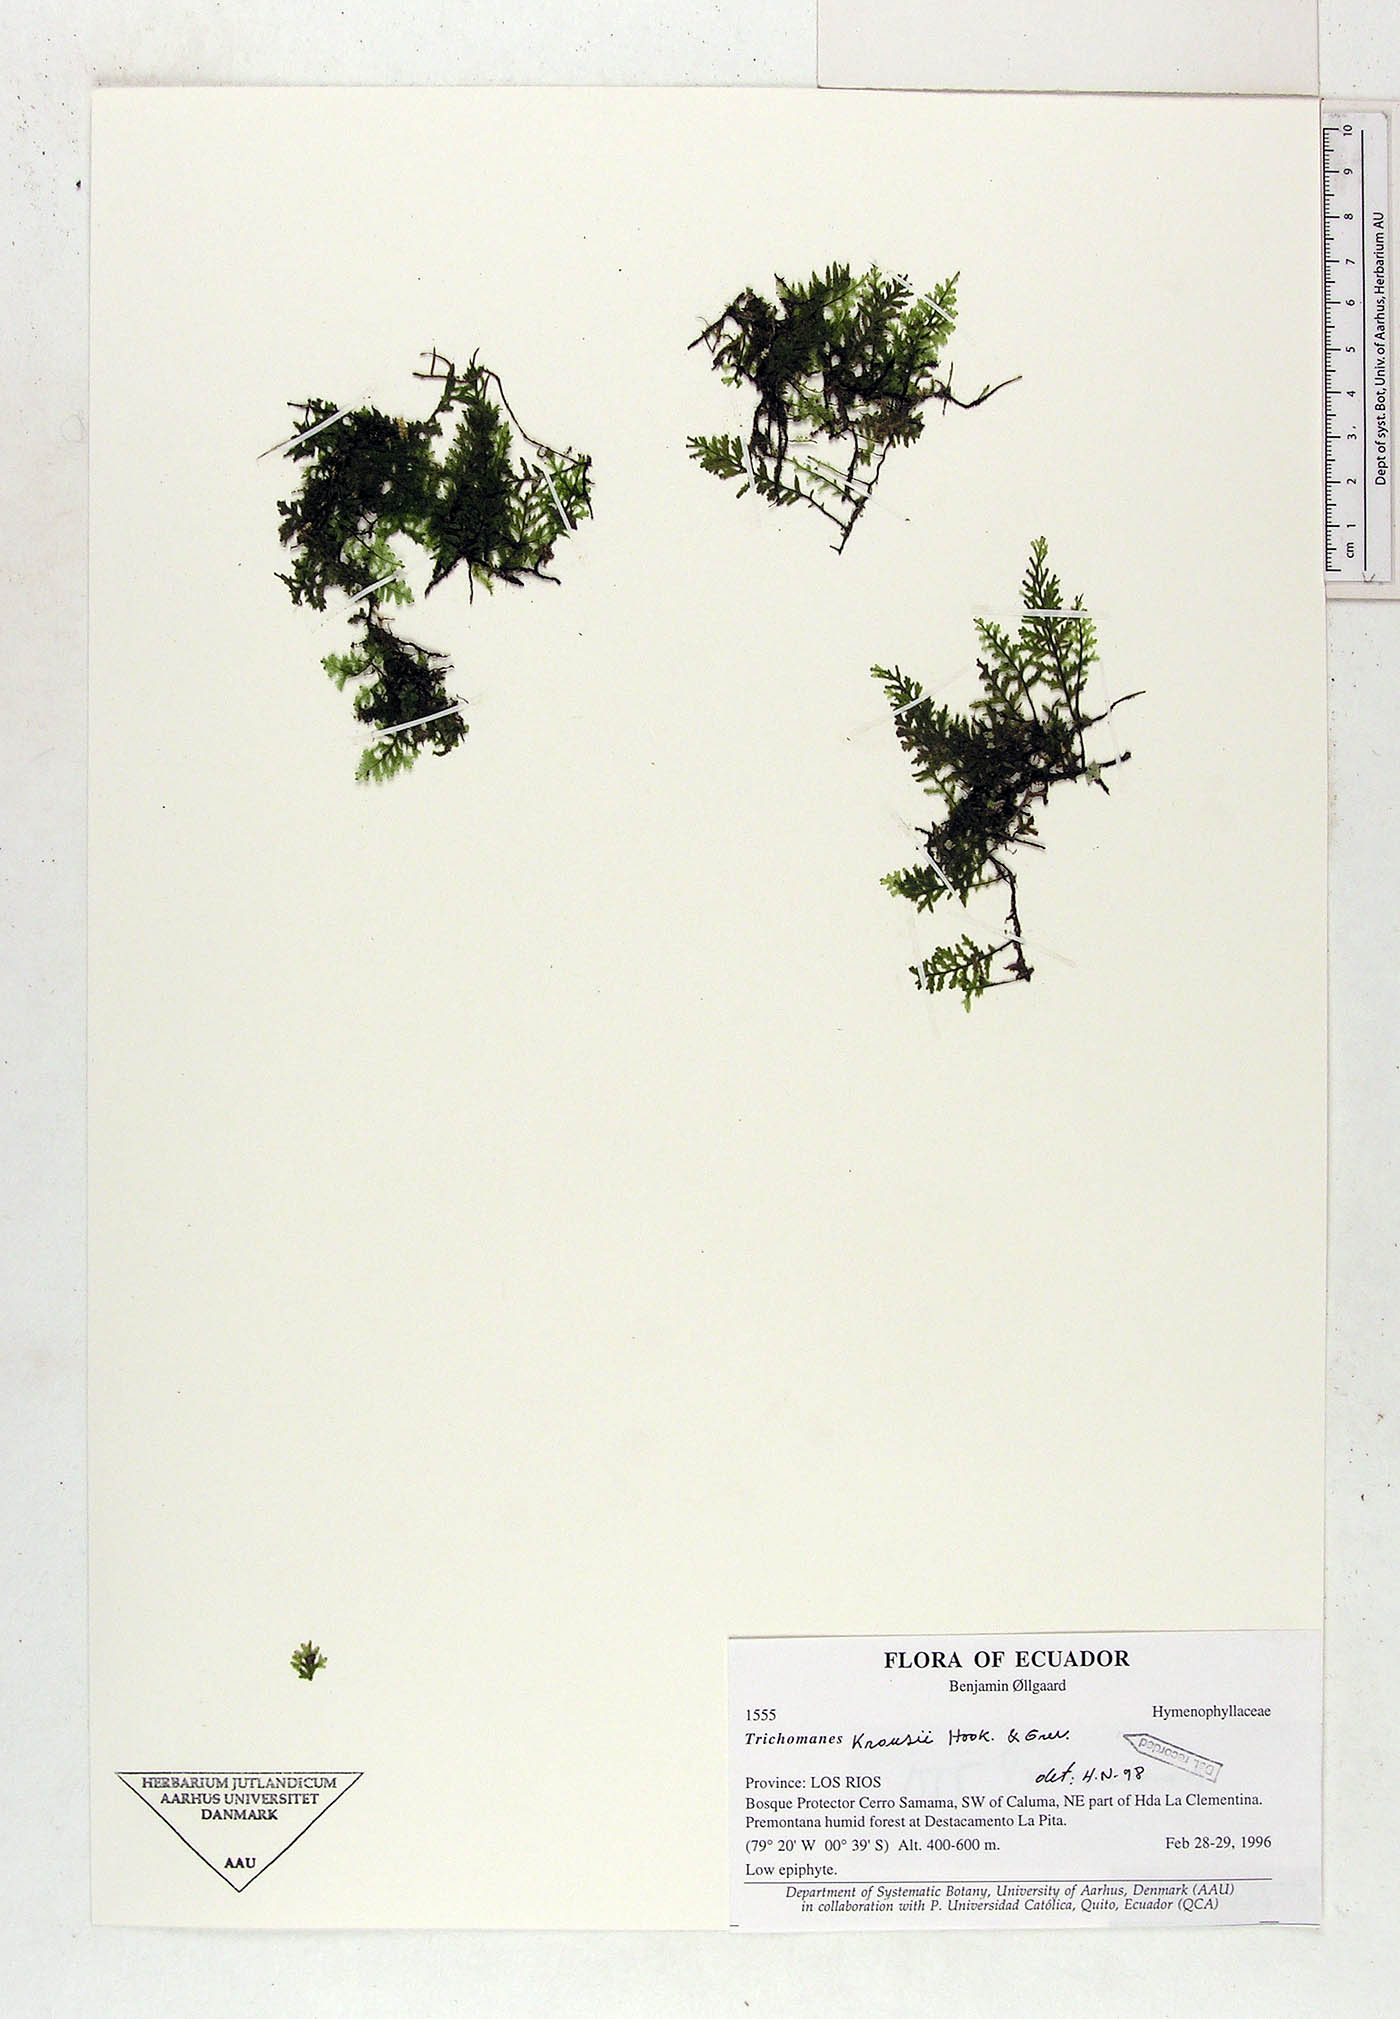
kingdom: Plantae
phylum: Tracheophyta
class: Polypodiopsida
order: Hymenophyllales
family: Hymenophyllaceae
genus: Didymoglossum
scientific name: Didymoglossum kraussii
